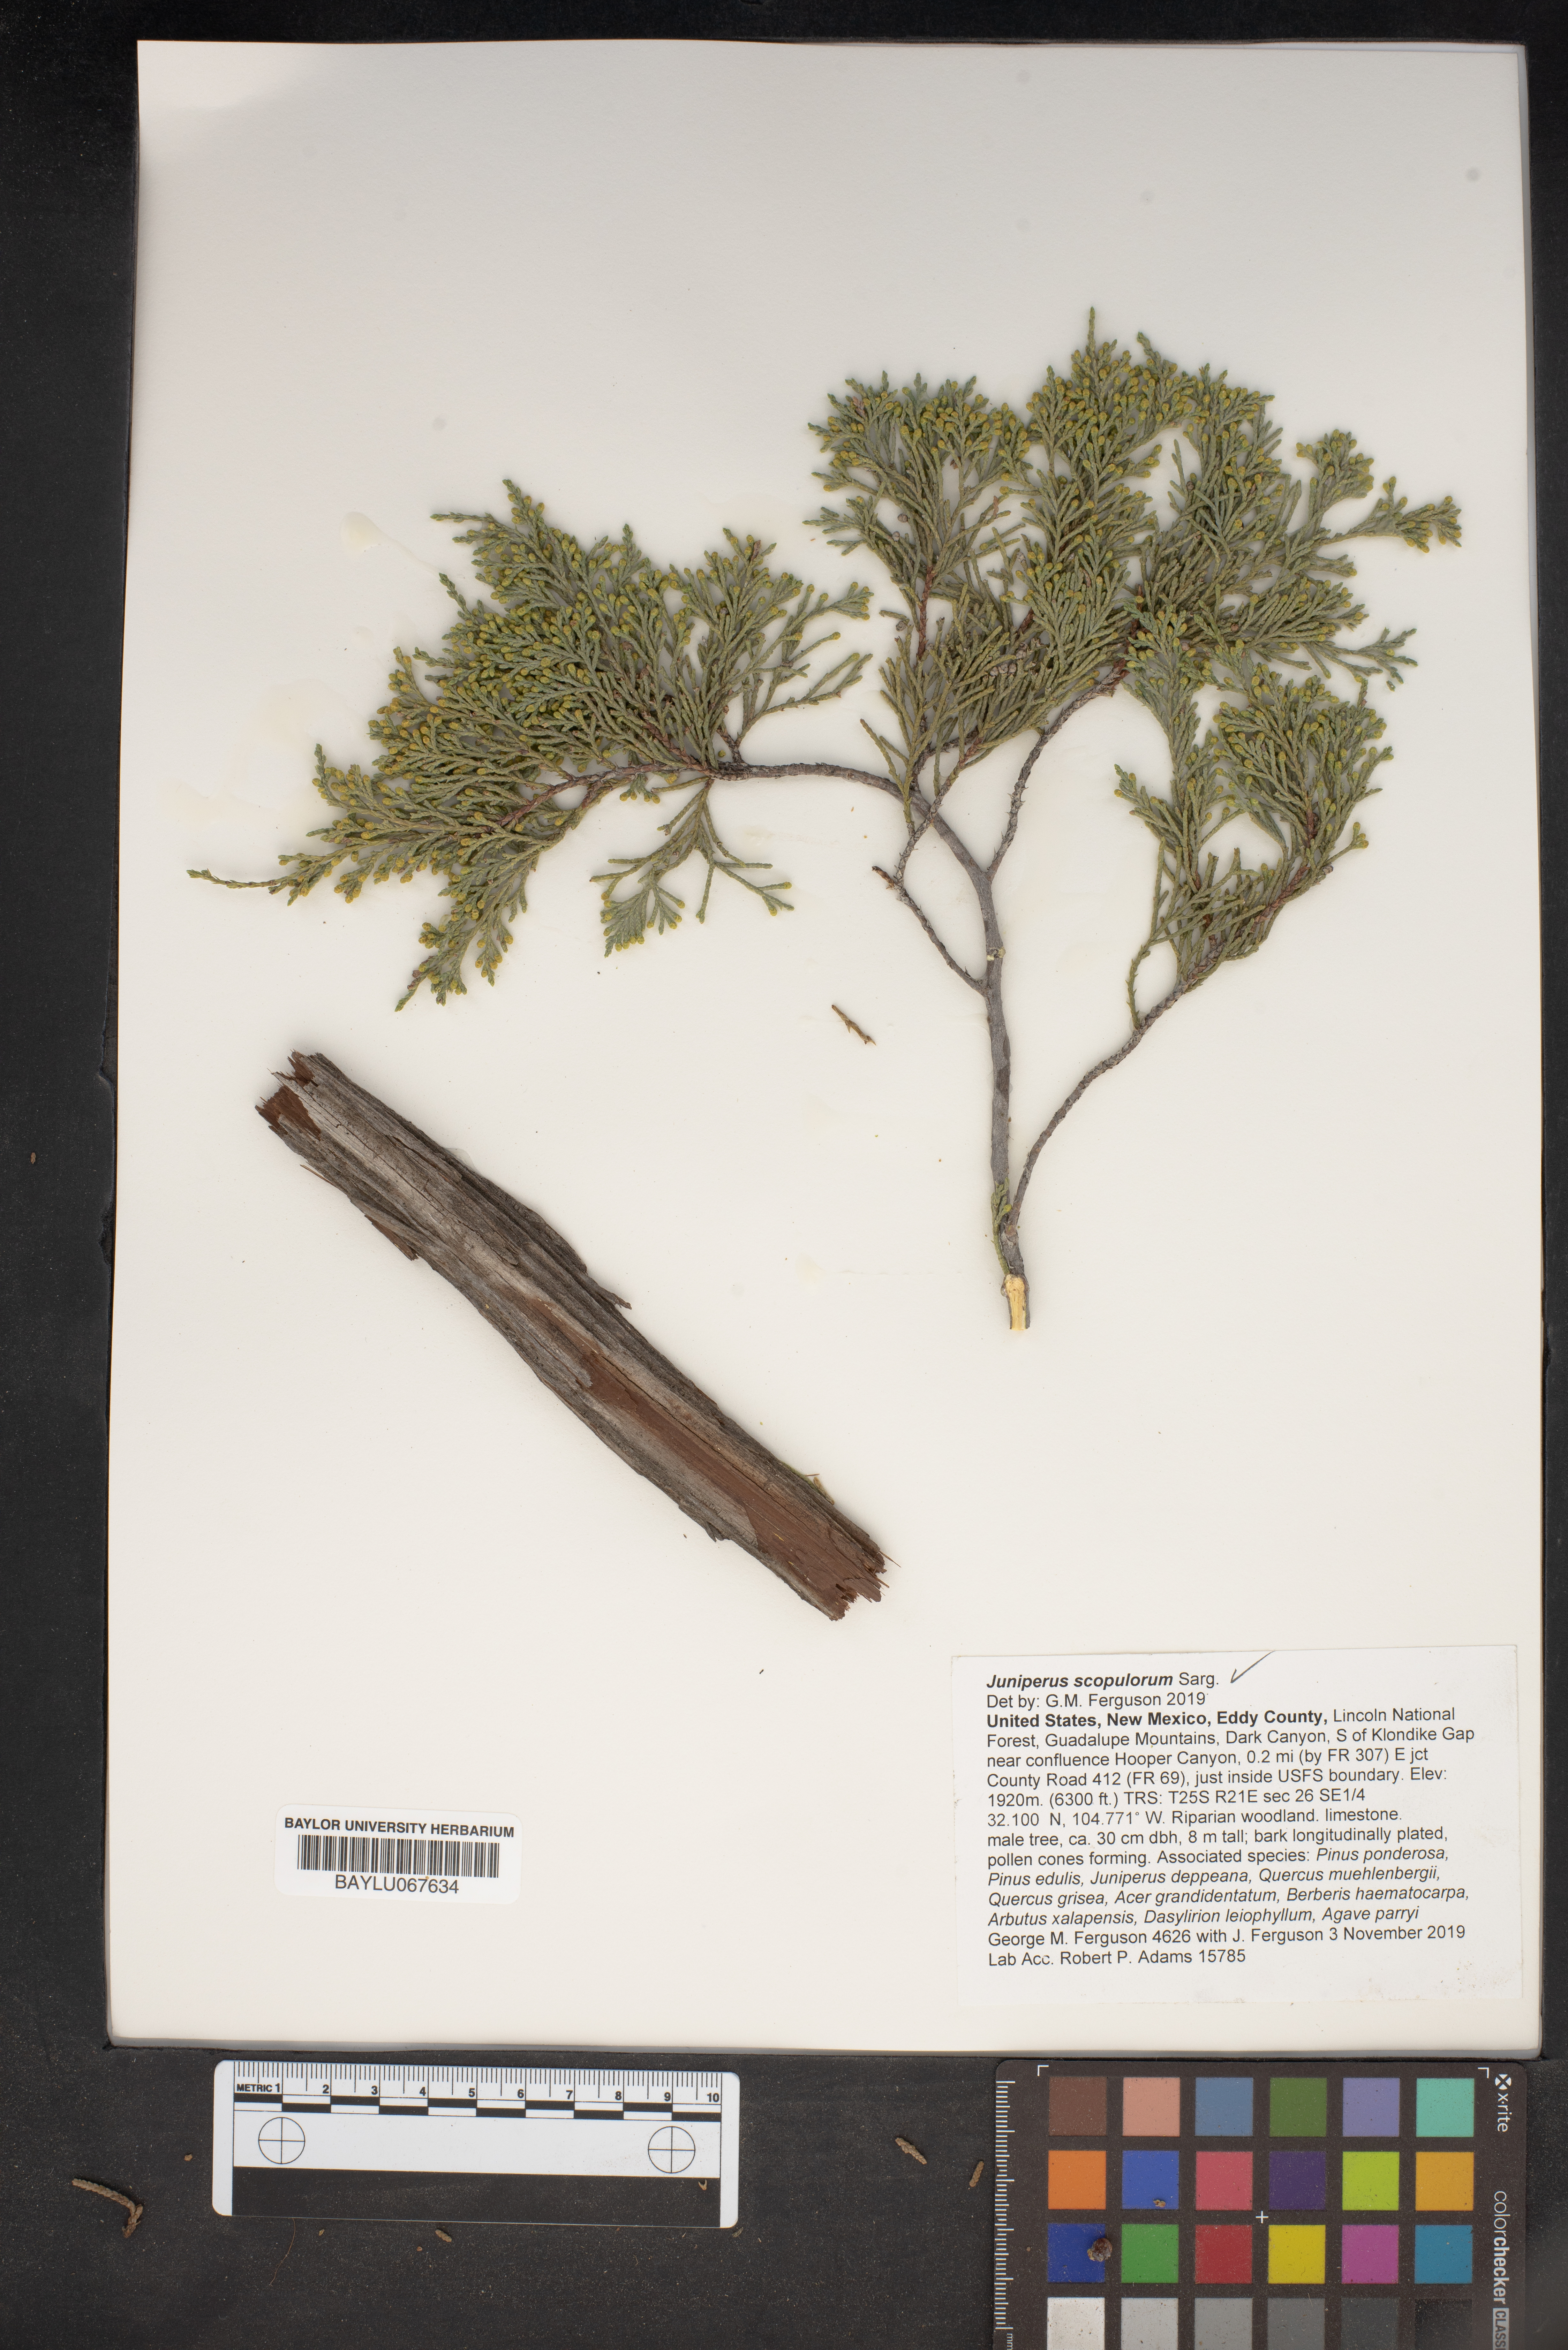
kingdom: Plantae
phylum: Tracheophyta
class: Pinopsida
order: Pinales
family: Cupressaceae
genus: Juniperus
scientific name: Juniperus scopulorum
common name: Rocky mountain juniper
